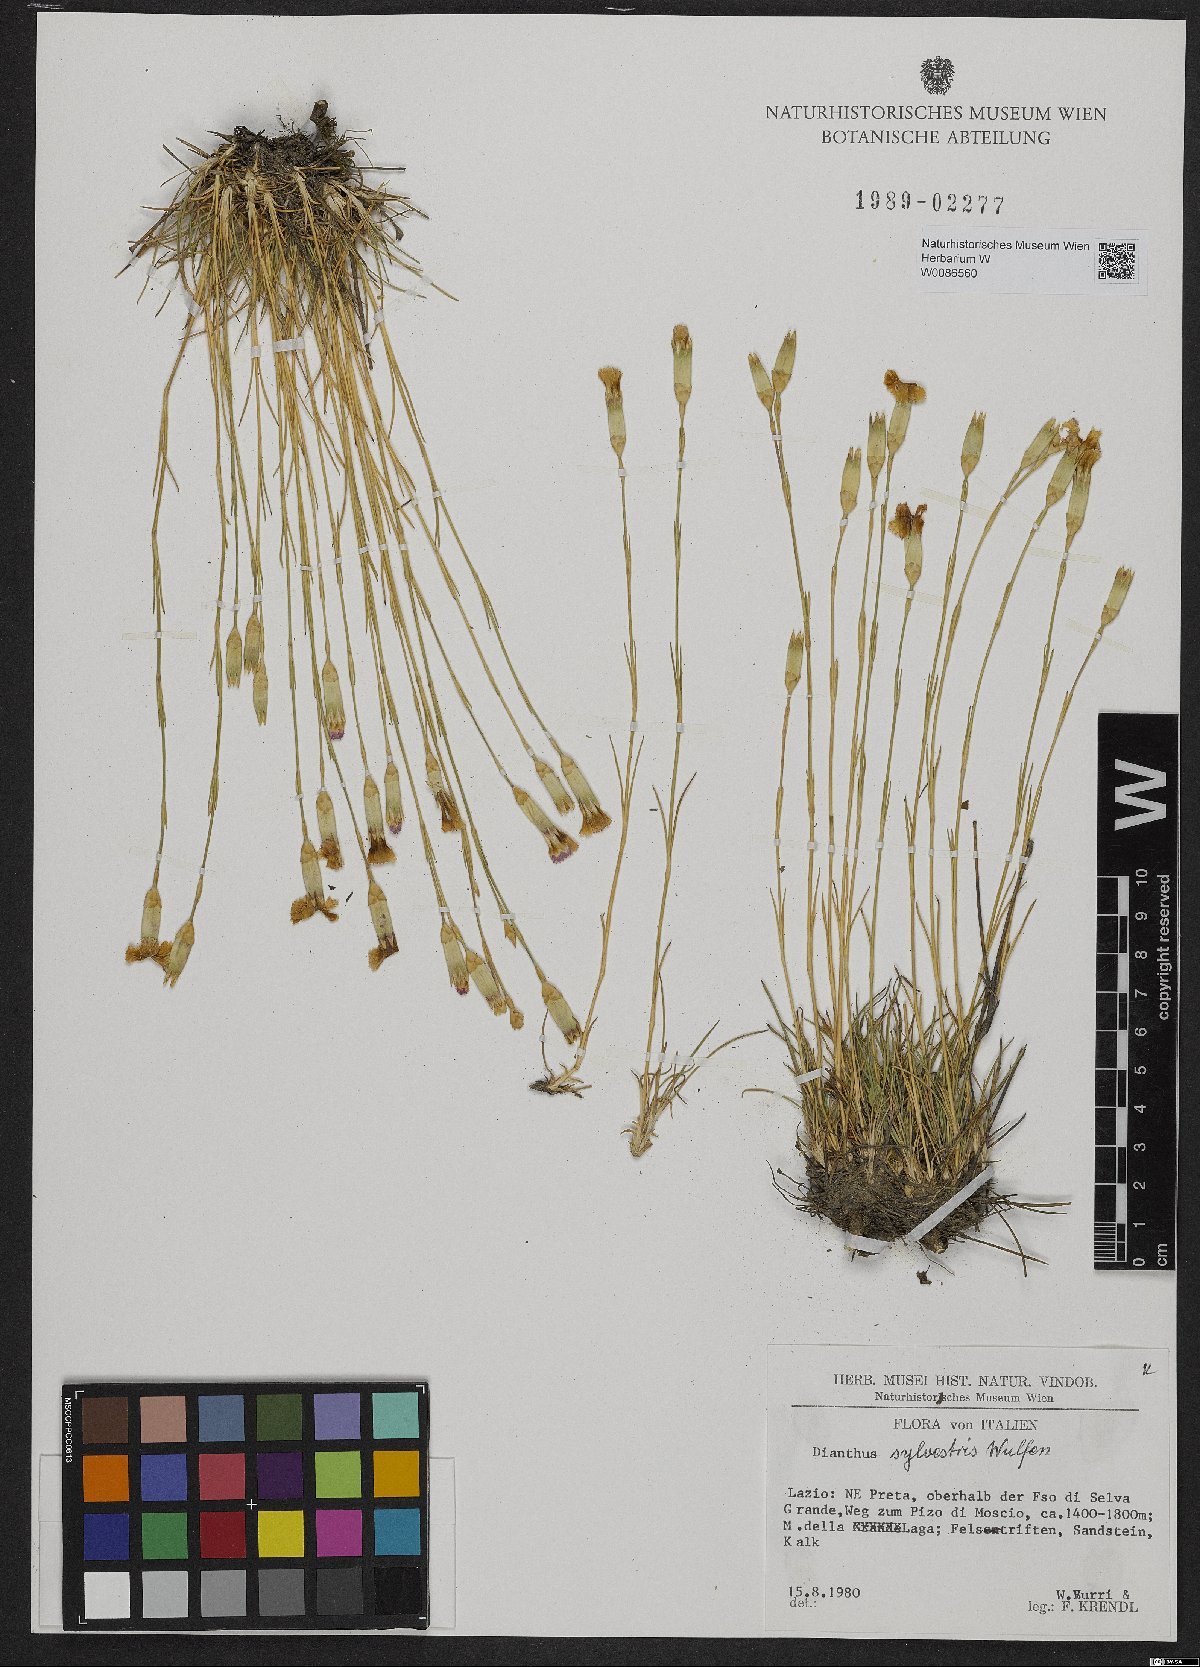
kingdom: Plantae
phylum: Tracheophyta
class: Magnoliopsida
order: Caryophyllales
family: Caryophyllaceae
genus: Dianthus
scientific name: Dianthus sylvestris
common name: Wood pink
